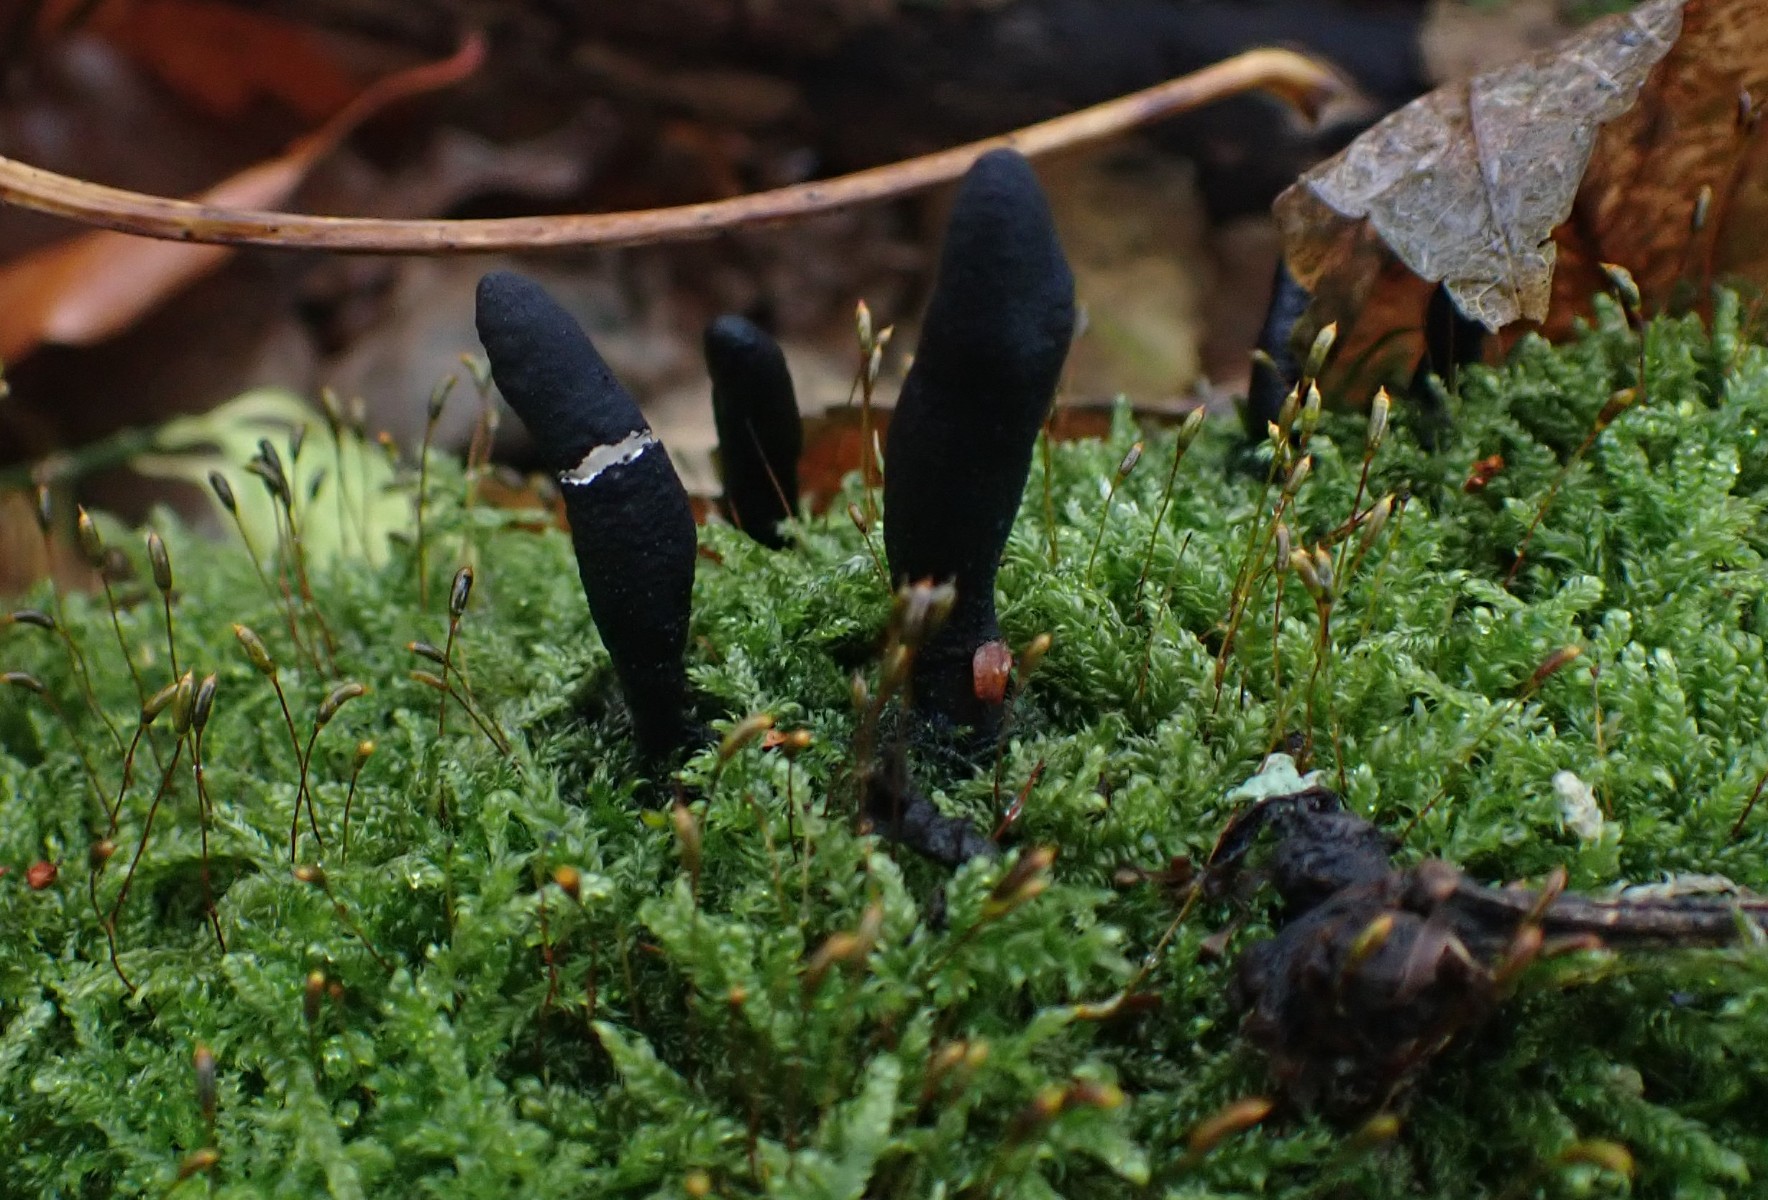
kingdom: Fungi
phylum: Ascomycota
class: Sordariomycetes
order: Xylariales
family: Xylariaceae
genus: Xylaria
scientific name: Xylaria longipes
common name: slank stødsvamp
